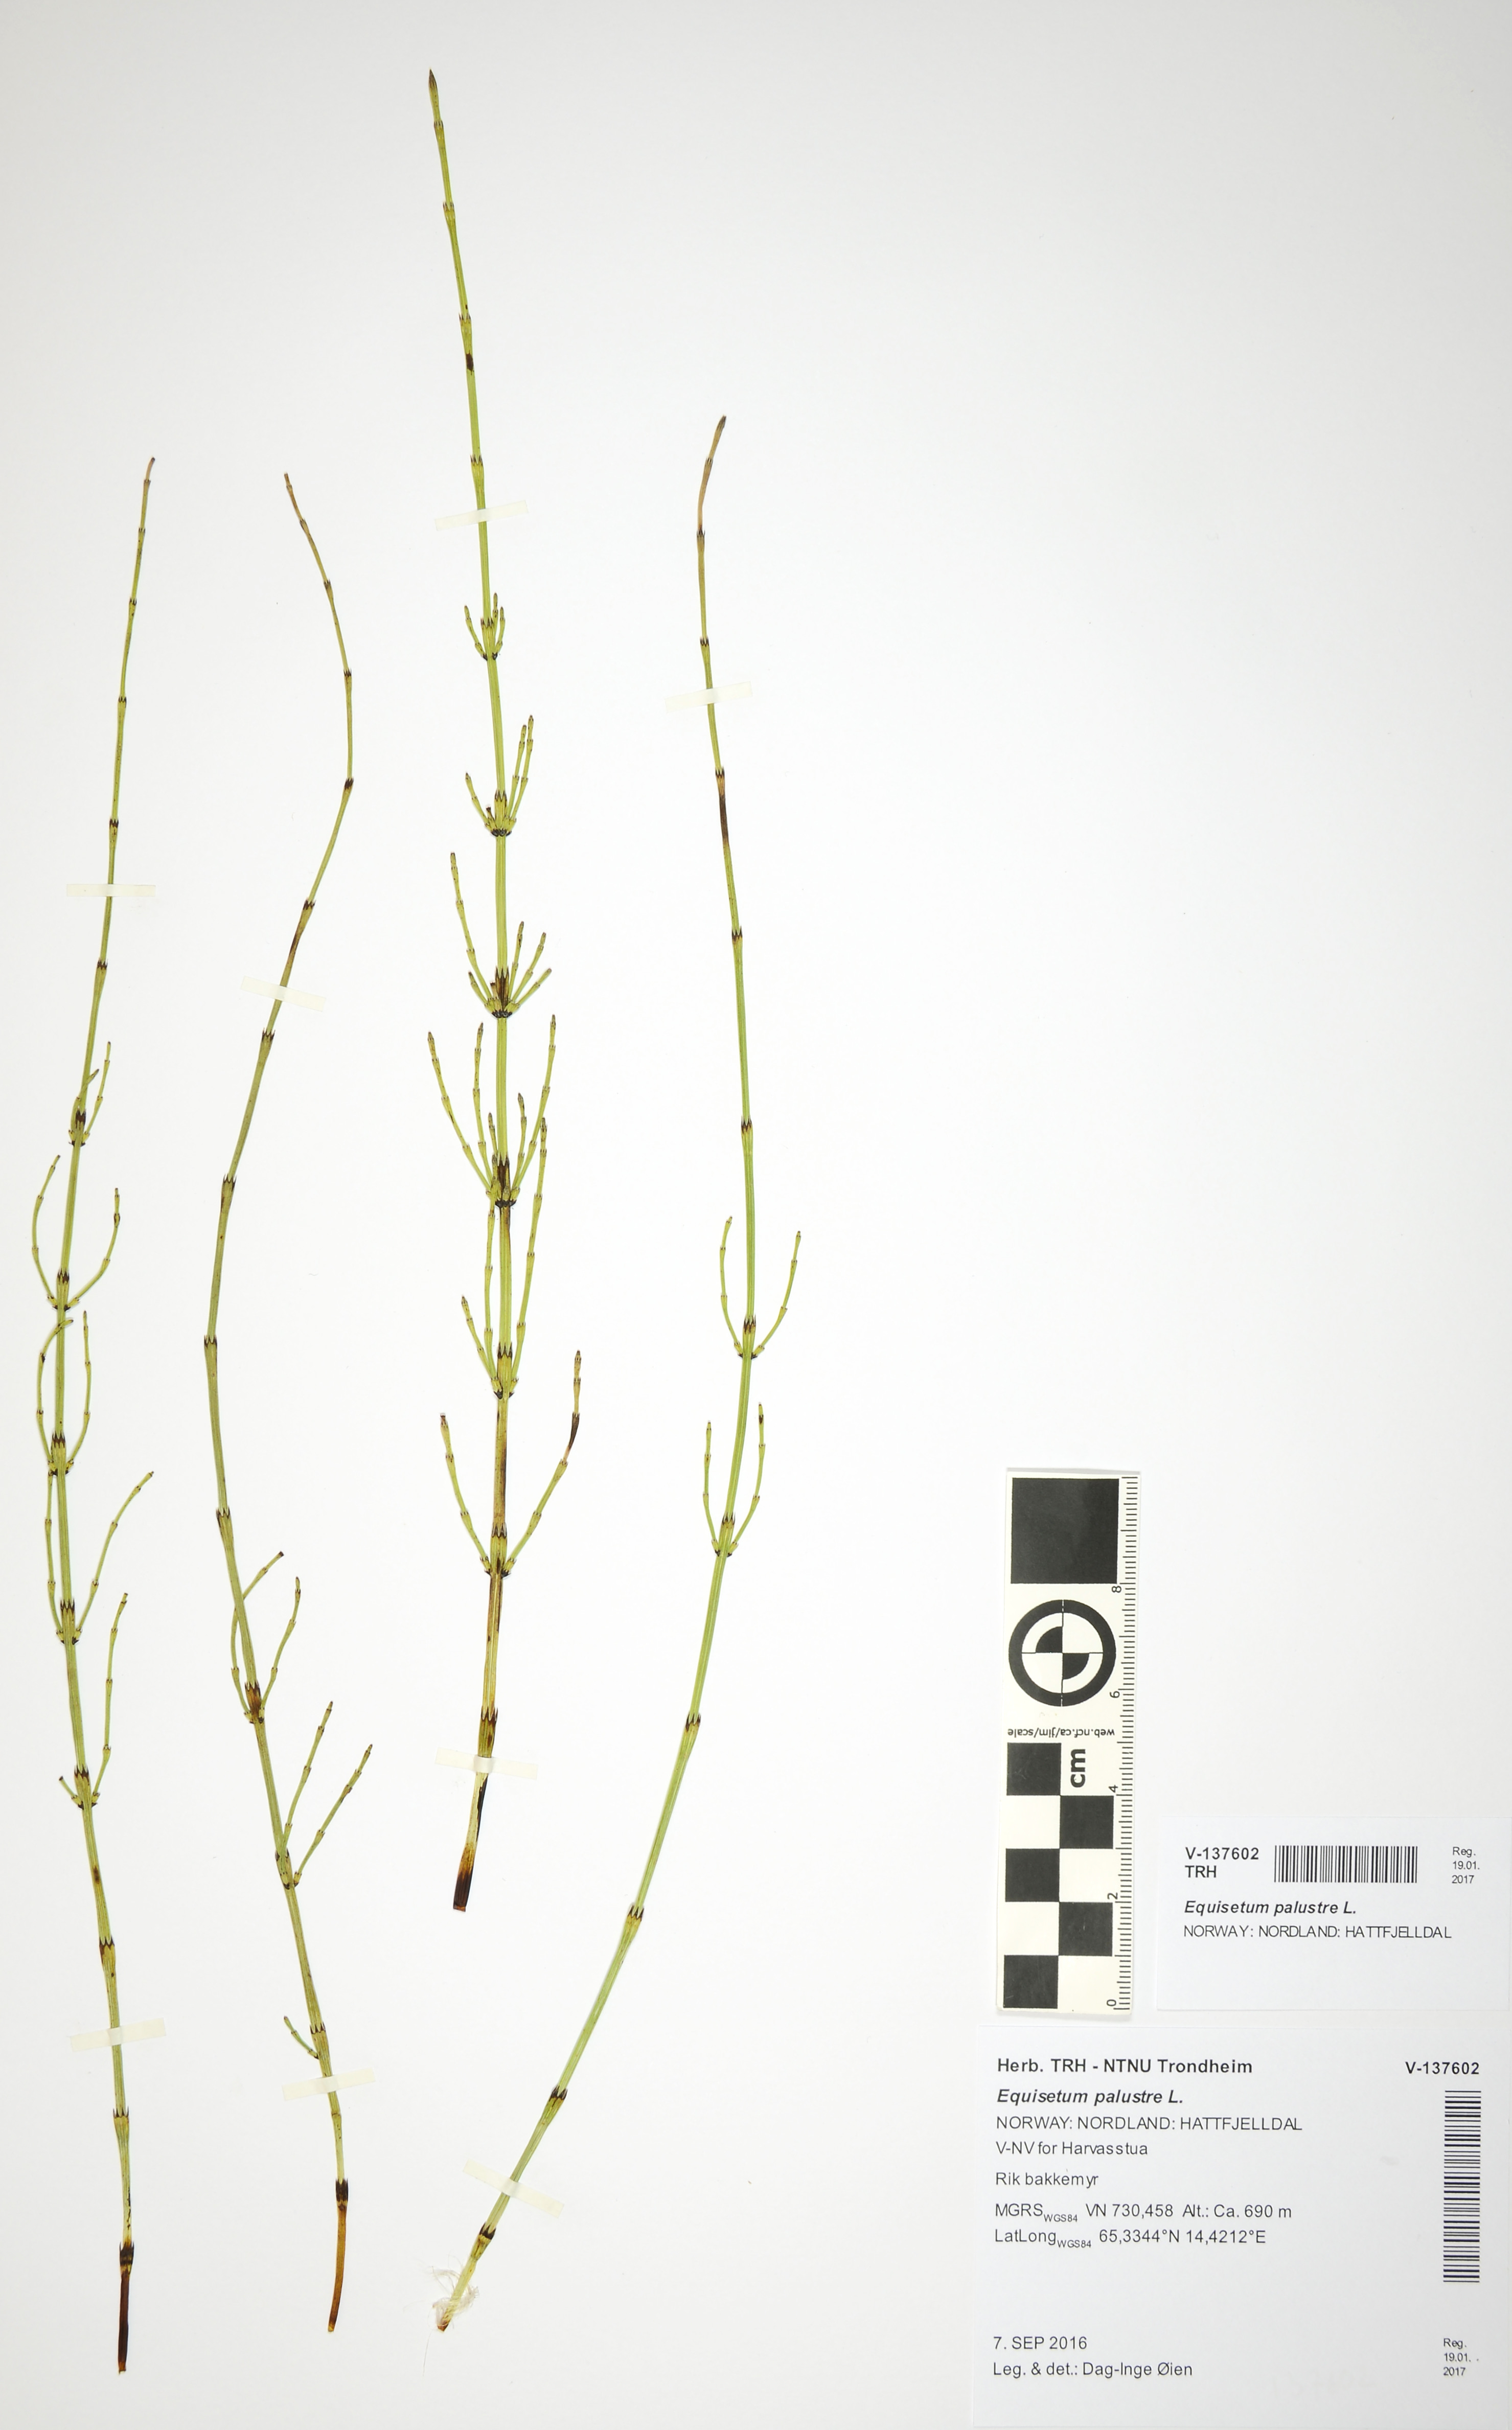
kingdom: Plantae
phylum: Tracheophyta
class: Polypodiopsida
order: Equisetales
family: Equisetaceae
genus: Equisetum
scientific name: Equisetum palustre
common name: Marsh horsetail
